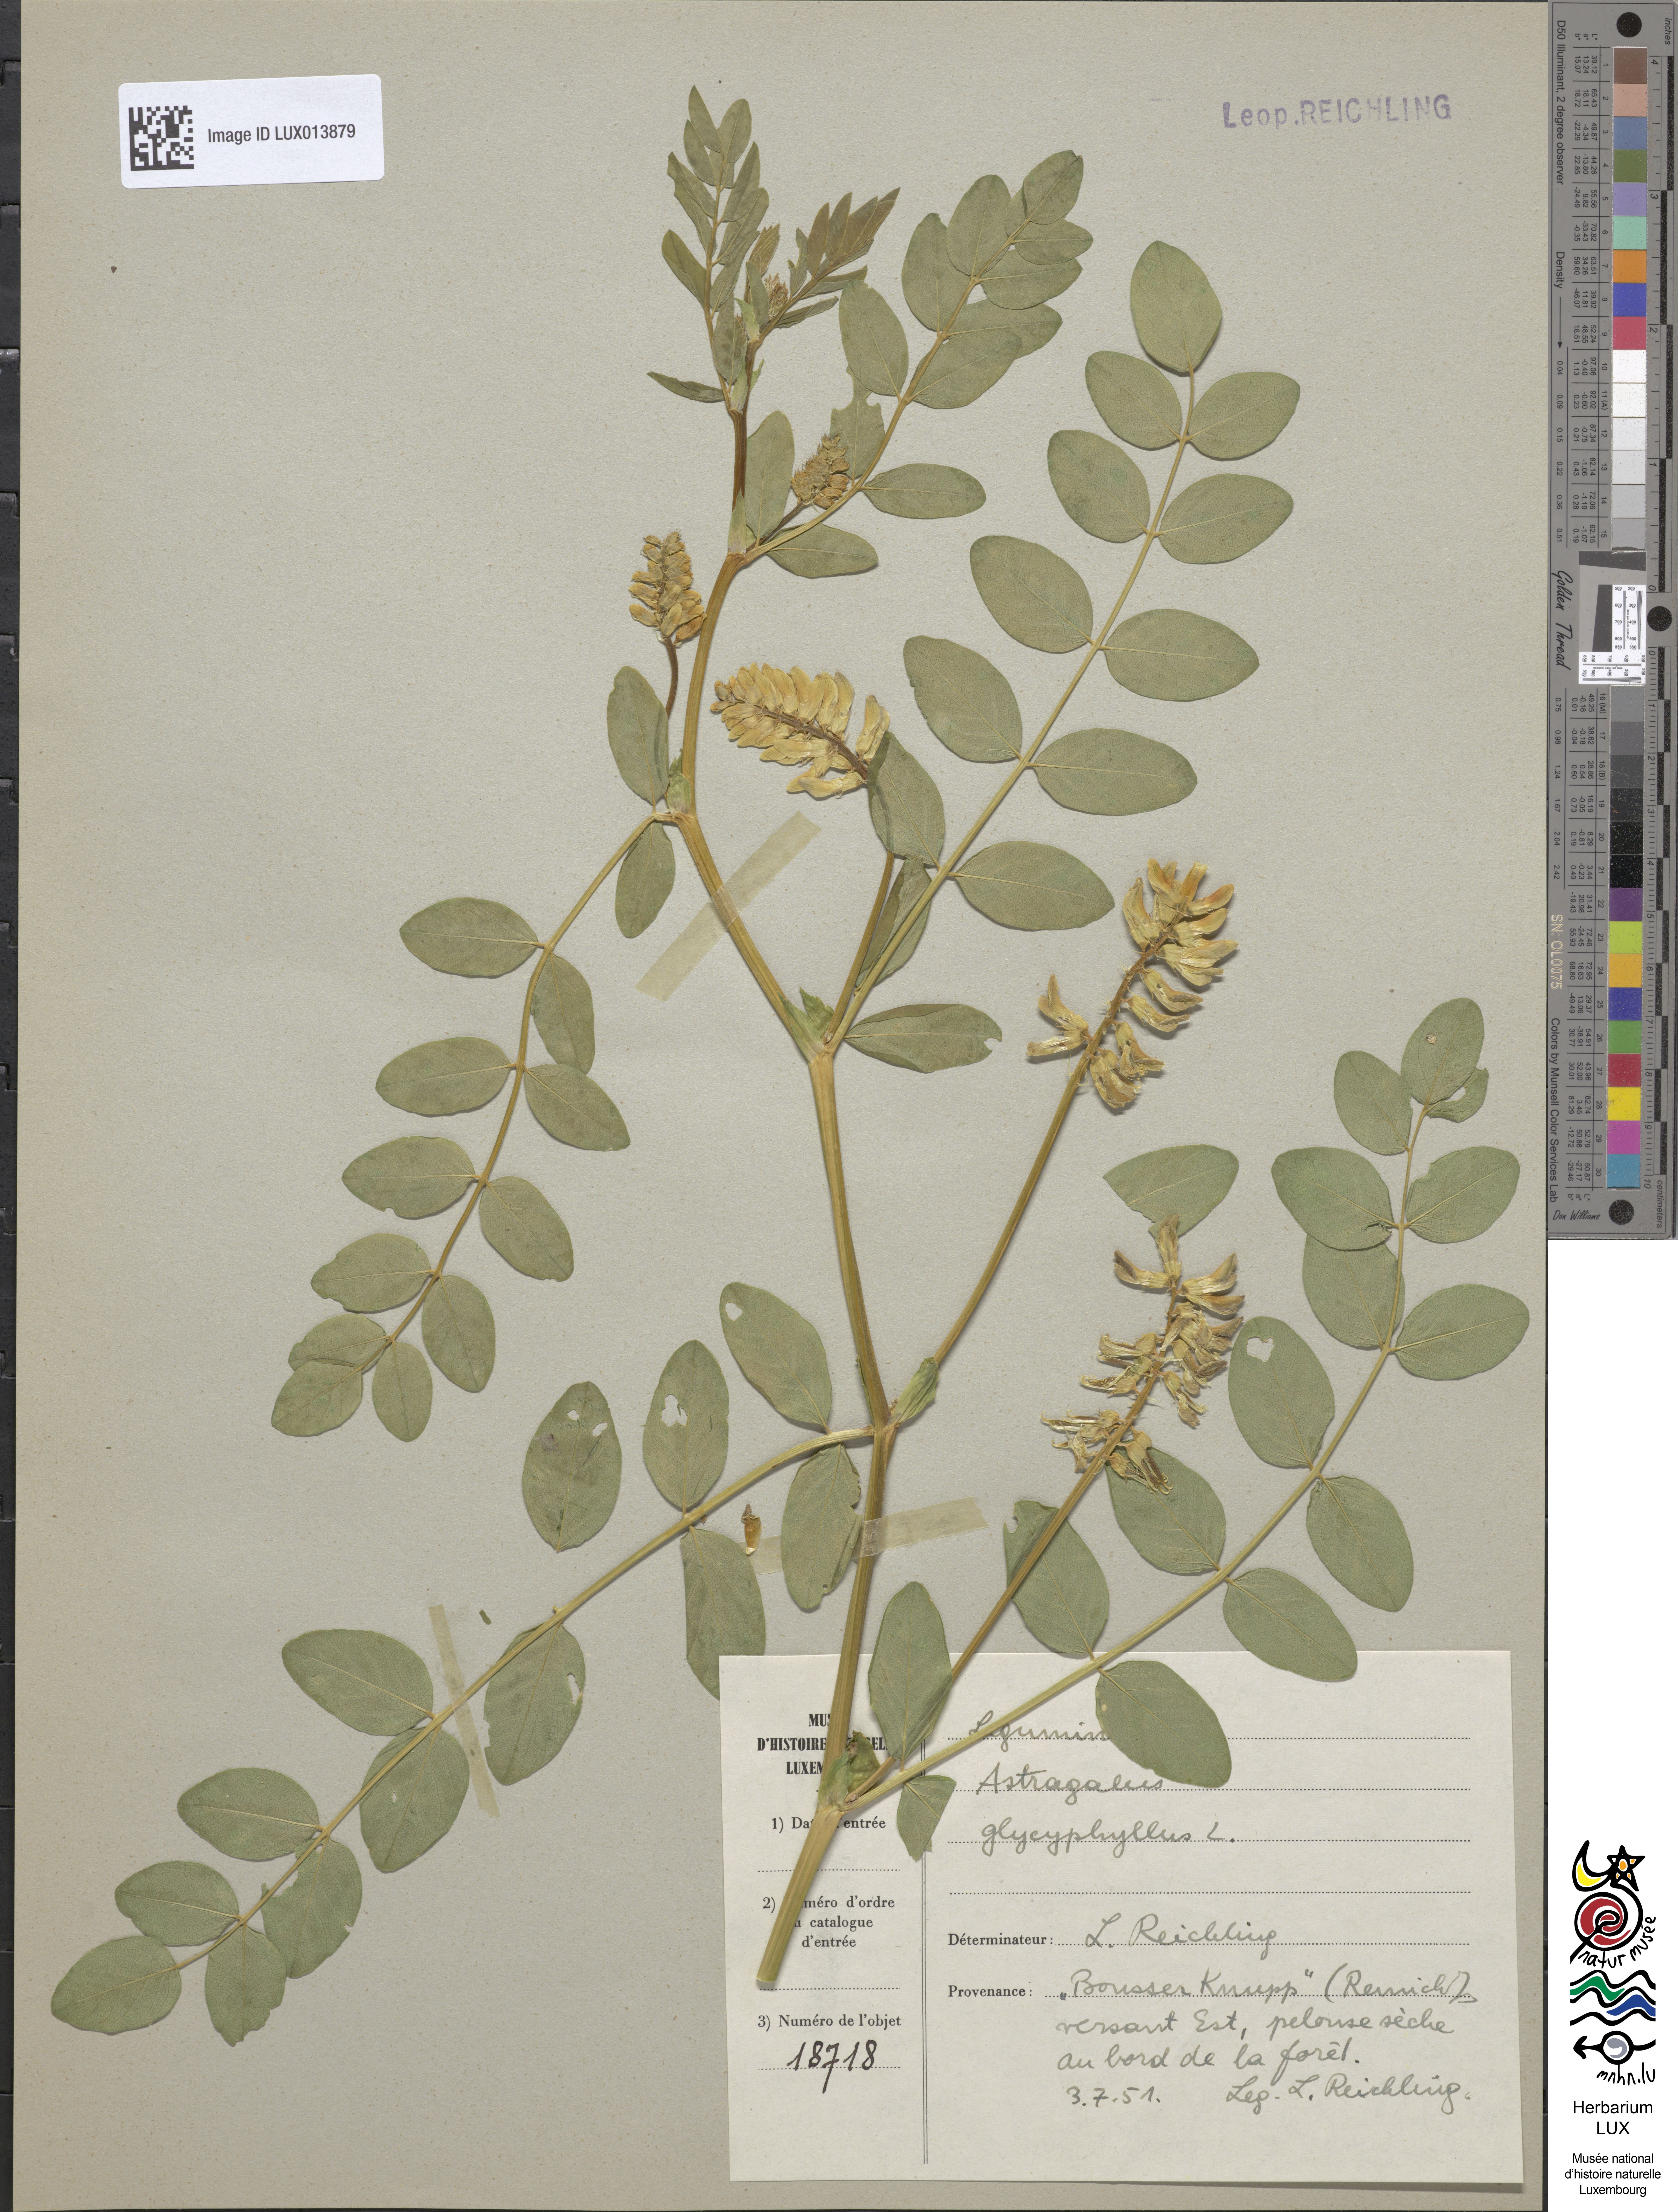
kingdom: Plantae
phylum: Tracheophyta
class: Magnoliopsida
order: Fabales
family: Fabaceae
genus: Astragalus
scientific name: Astragalus glycyphyllos
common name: Wild liquorice
